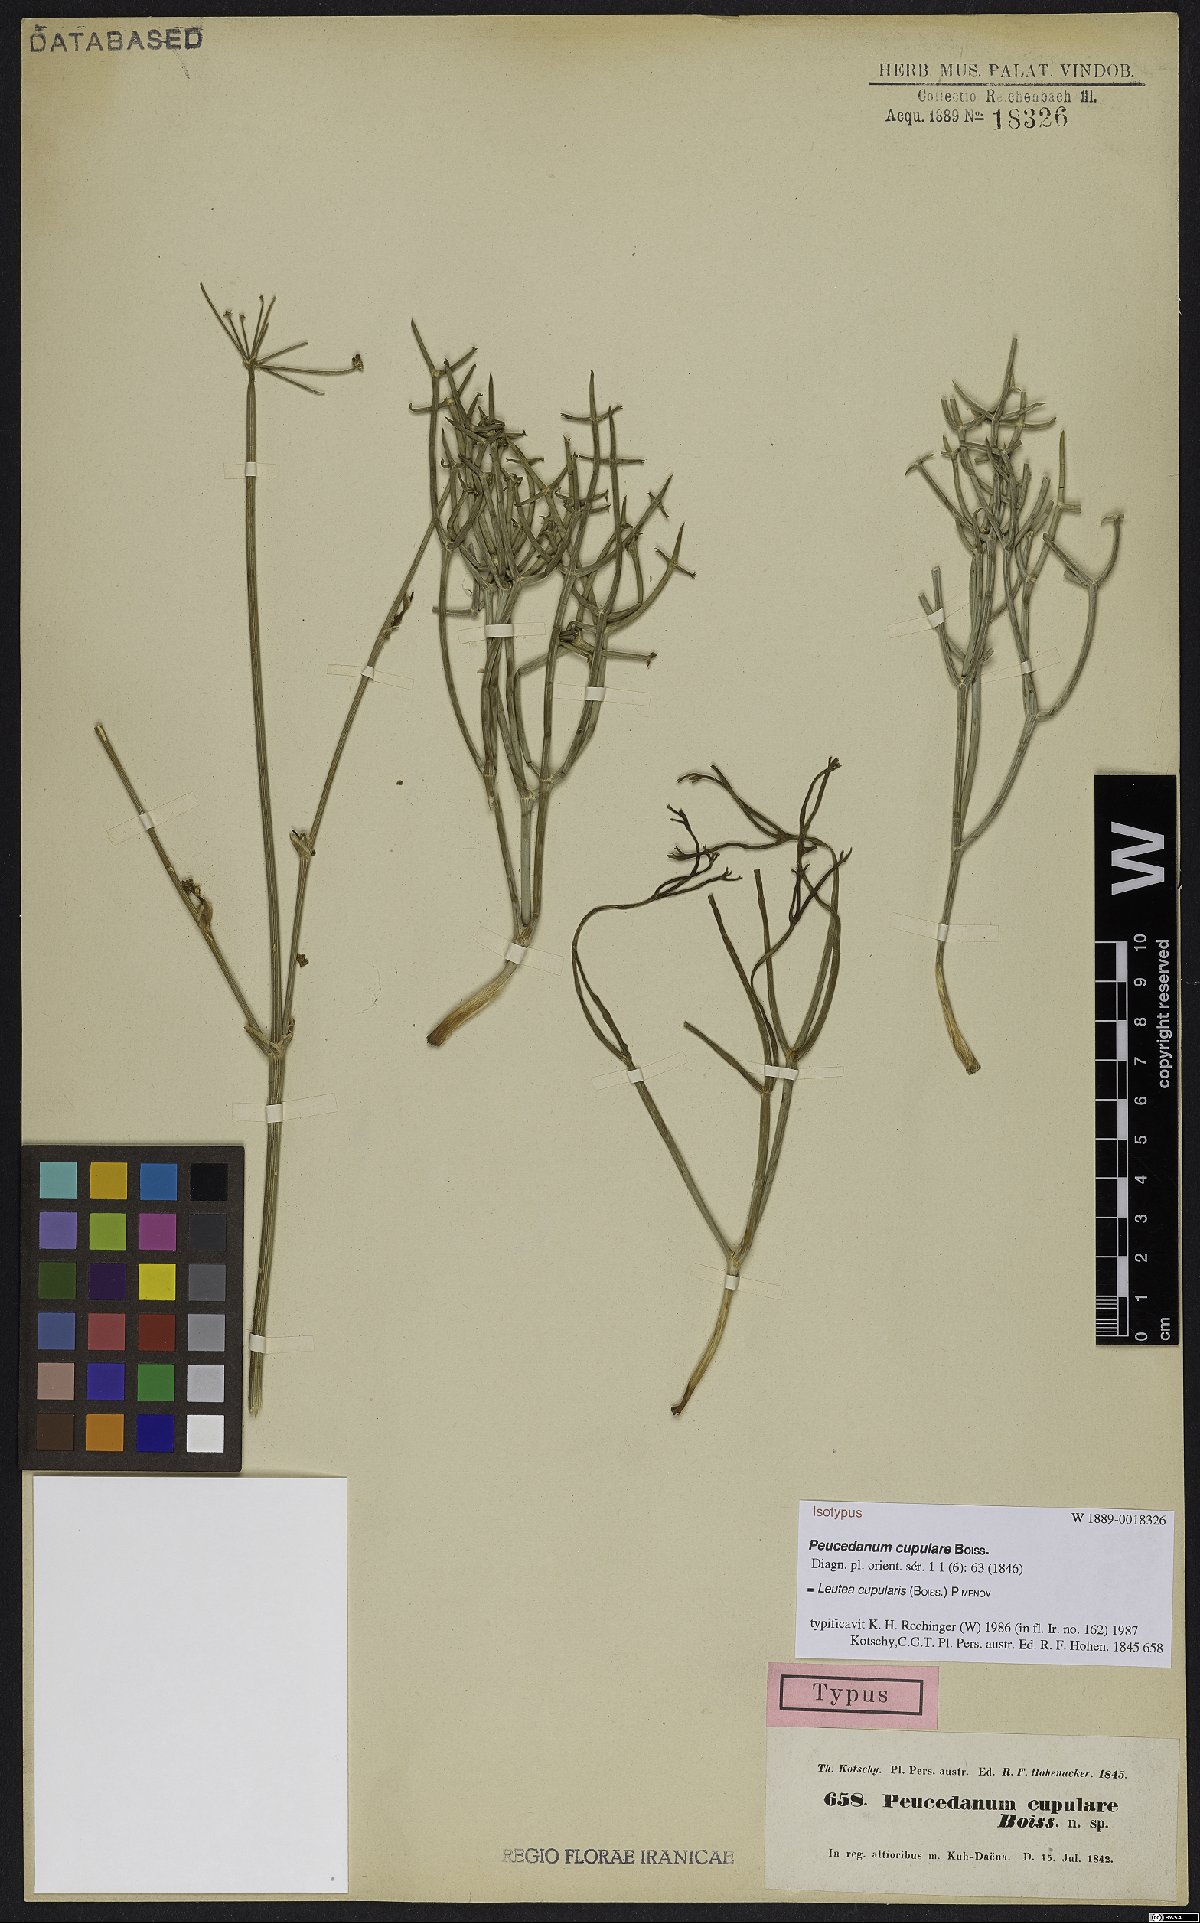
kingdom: Plantae
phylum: Tracheophyta
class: Magnoliopsida
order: Apiales
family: Apiaceae
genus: Ferula
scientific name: Ferula cupularis
